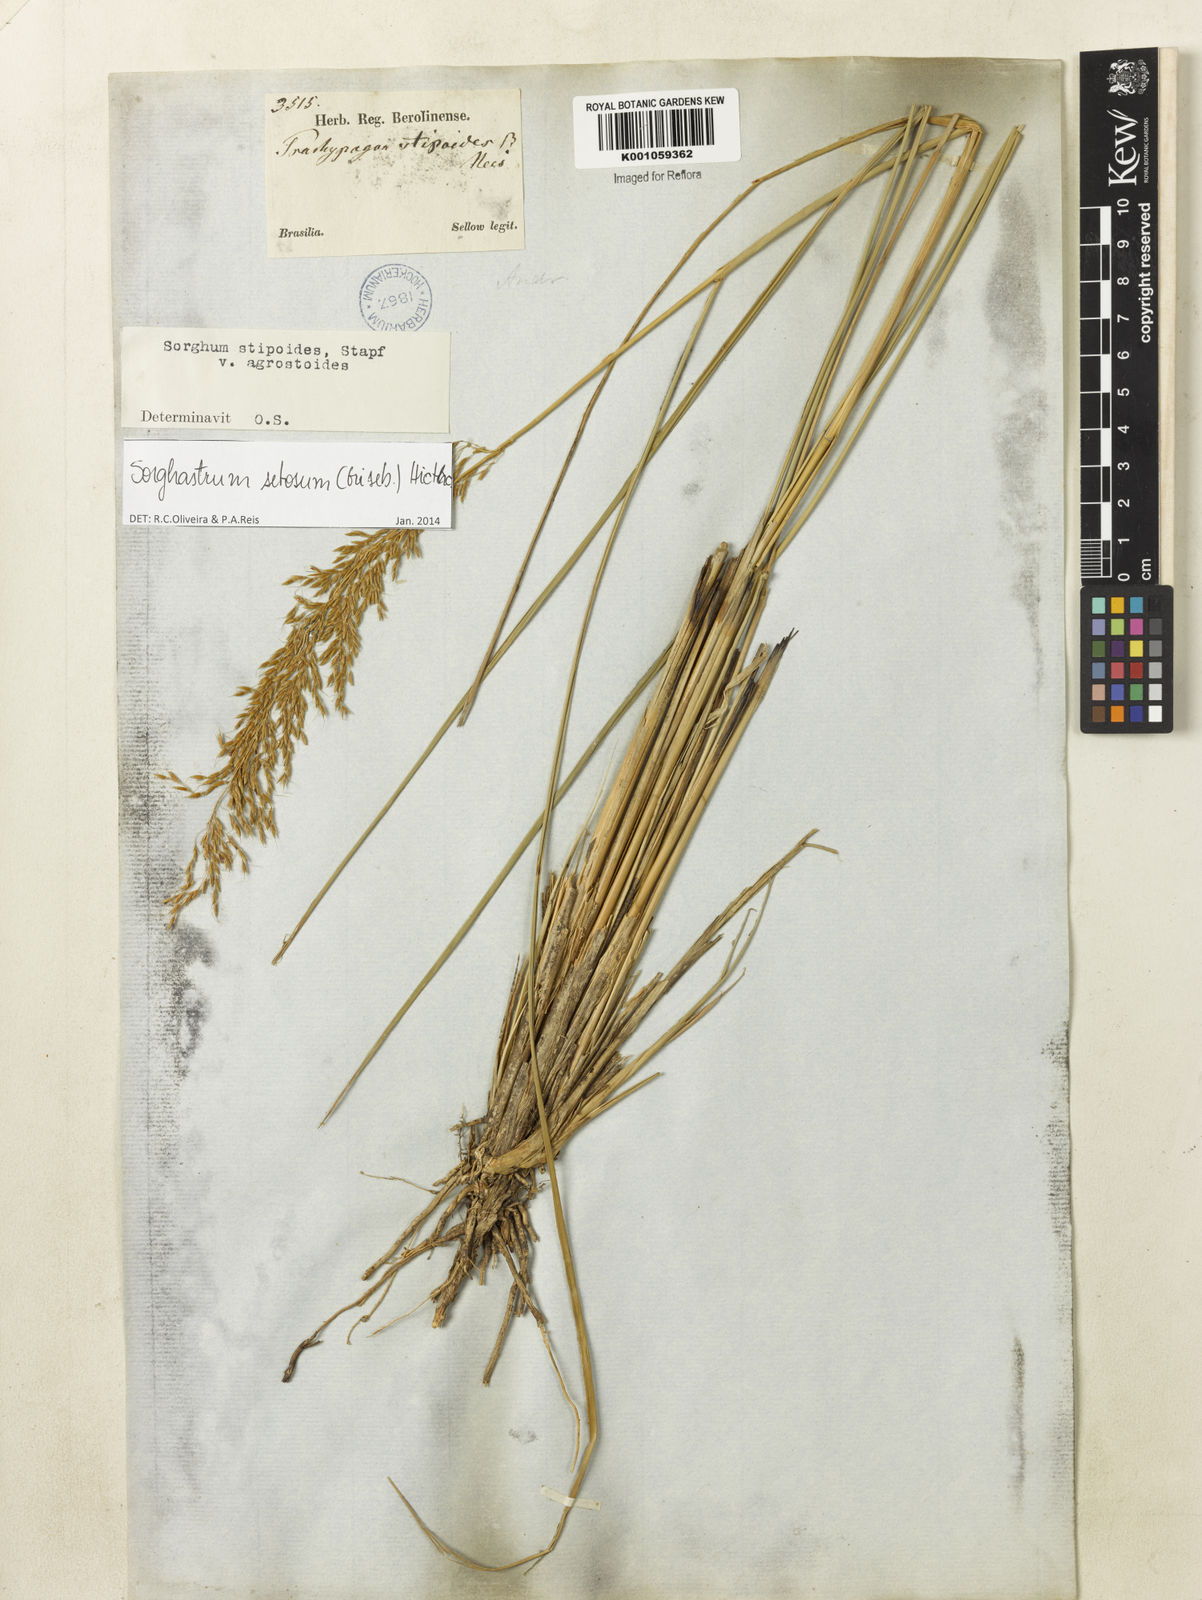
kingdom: Plantae
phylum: Tracheophyta
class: Liliopsida
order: Poales
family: Poaceae
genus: Sorghastrum
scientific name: Sorghastrum setosum
